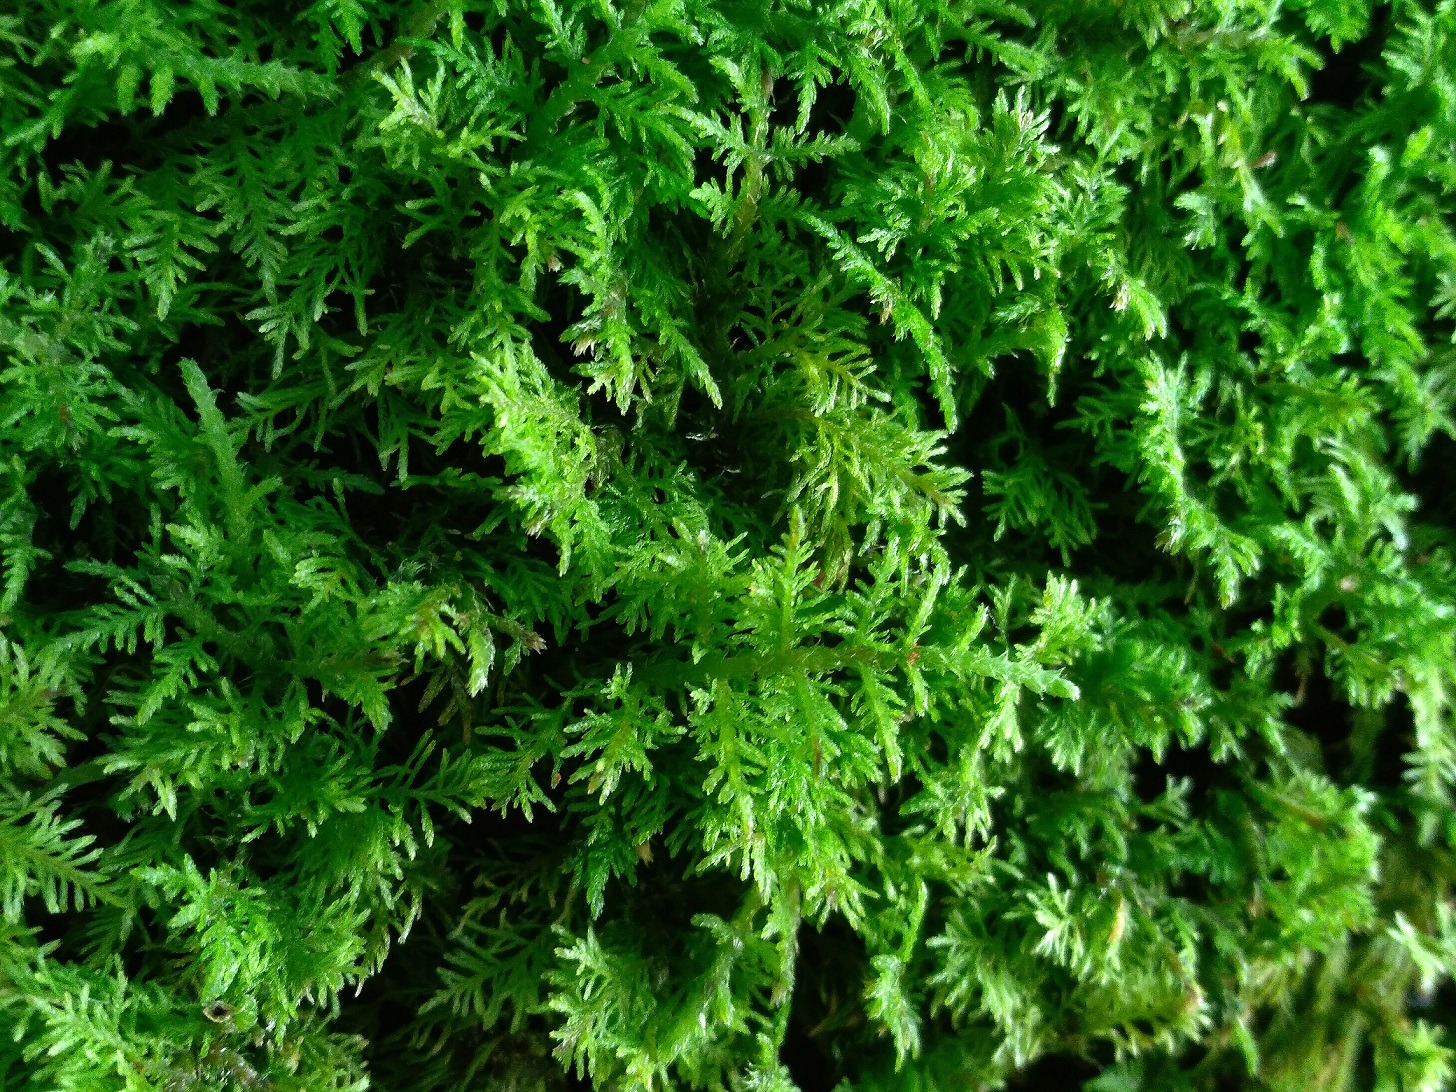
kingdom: Plantae
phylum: Bryophyta
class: Bryopsida
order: Hypnales
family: Thuidiaceae
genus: Thuidium
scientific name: Thuidium delicatulum
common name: Fingrenet bregnemos
